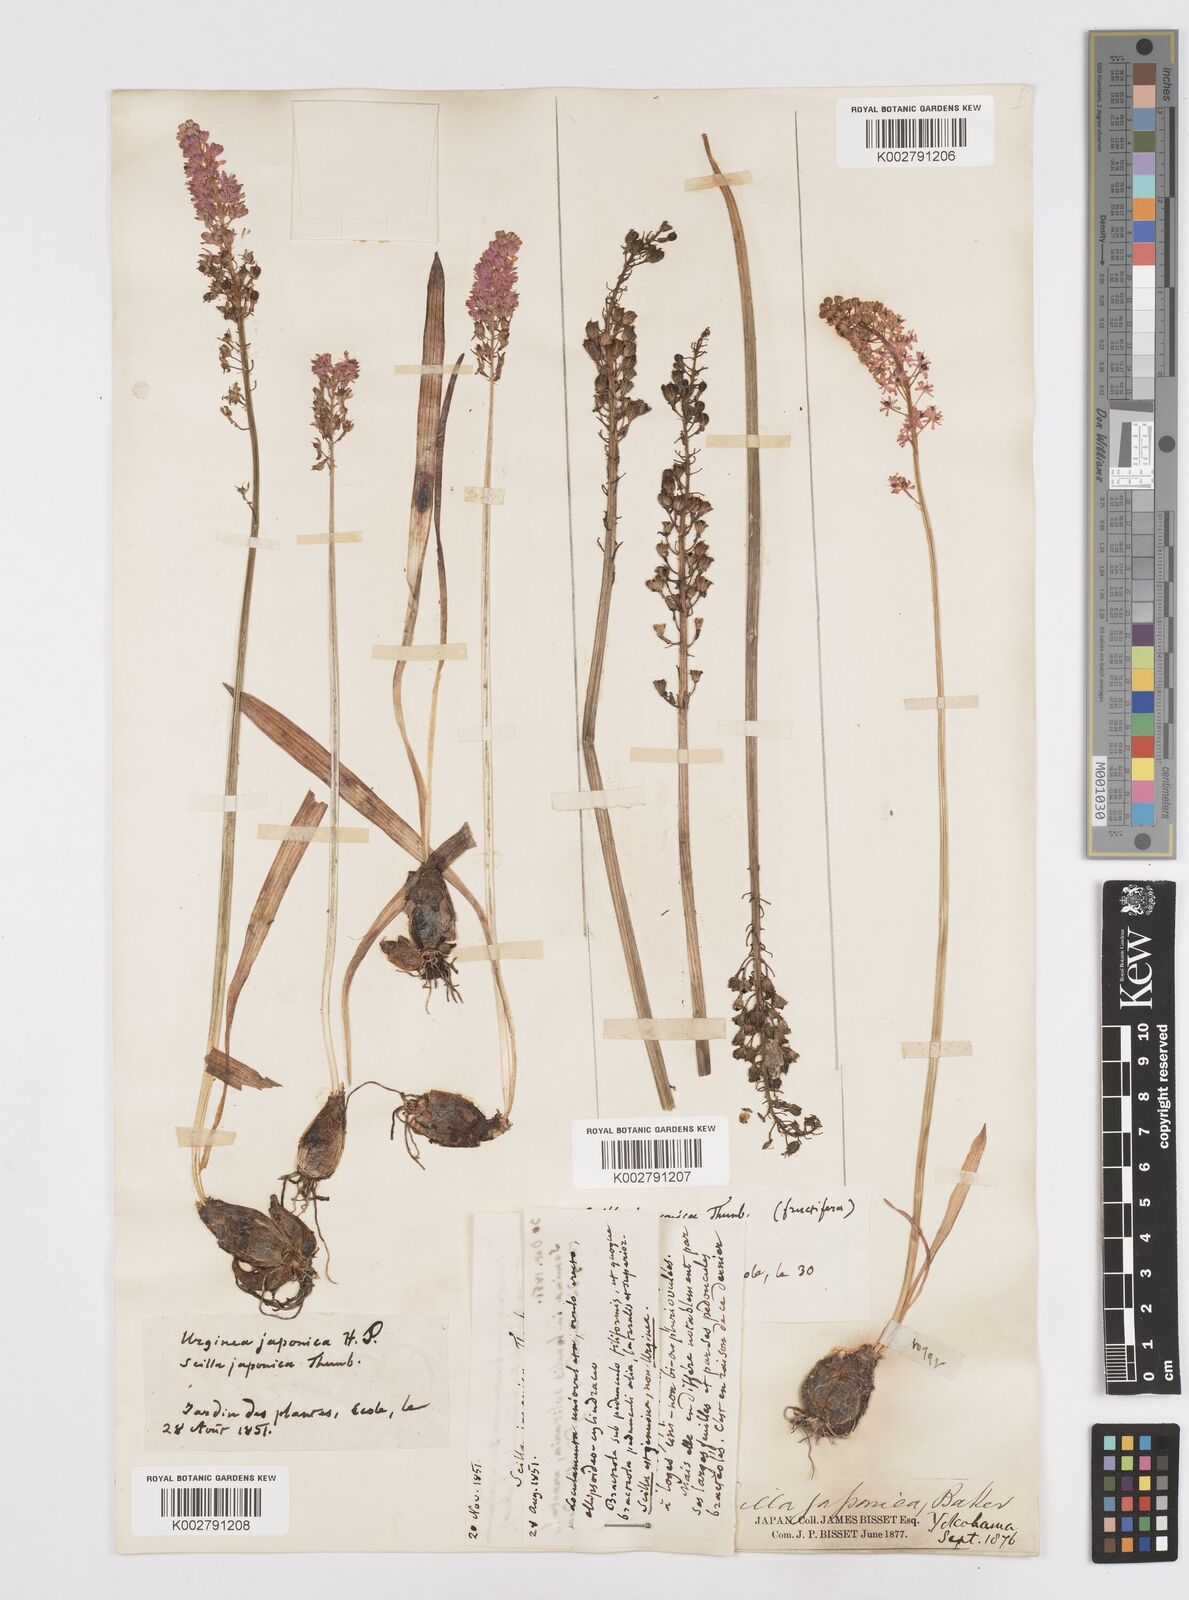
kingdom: Plantae
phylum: Tracheophyta
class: Liliopsida
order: Liliales
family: Melanthiaceae
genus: Helonias
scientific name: Helonias breviscapa
